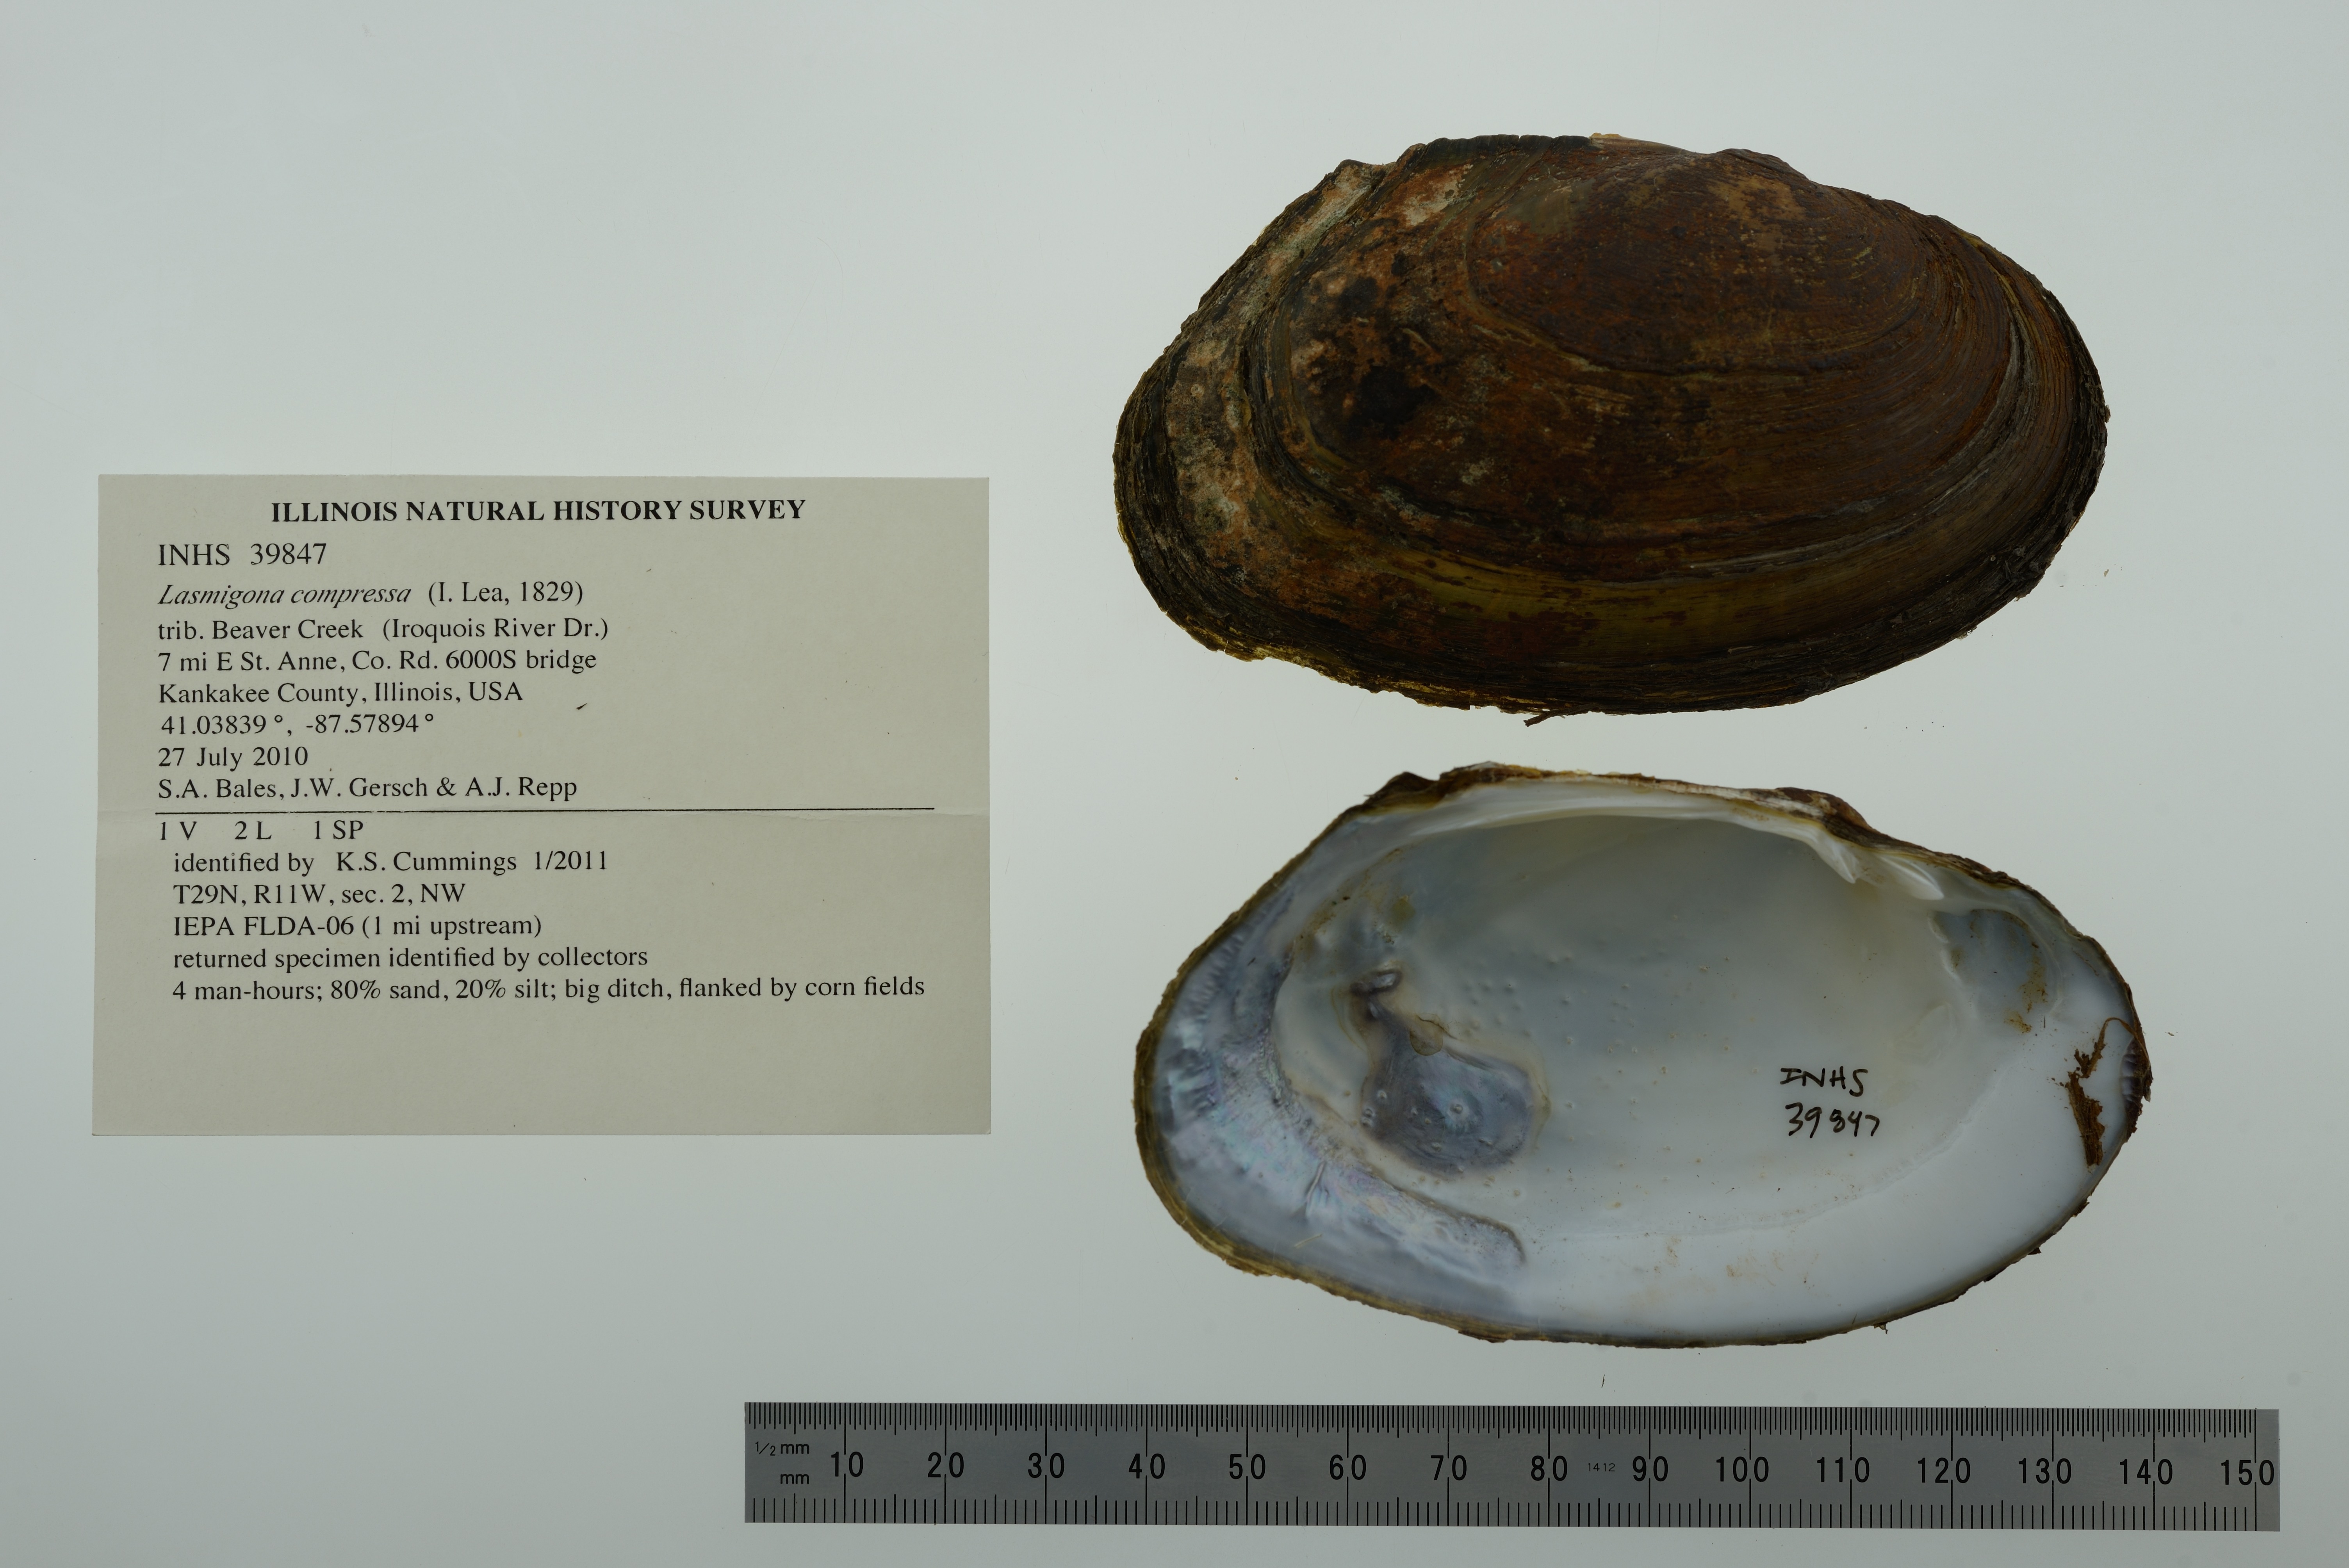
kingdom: Animalia
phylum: Mollusca
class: Bivalvia
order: Unionida
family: Unionidae
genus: Lasmigona
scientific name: Lasmigona compressa
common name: Creek heelsplitter
